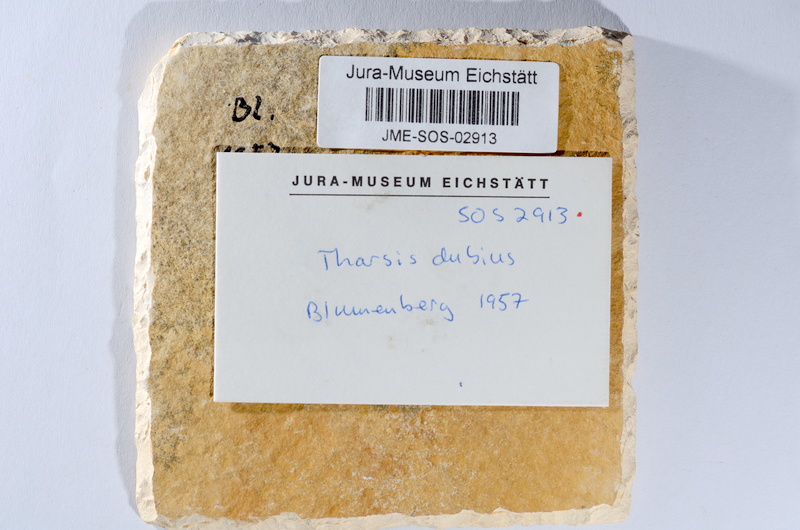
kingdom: Animalia
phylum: Chordata
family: Ascalaboidae
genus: Tharsis
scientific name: Tharsis dubius
